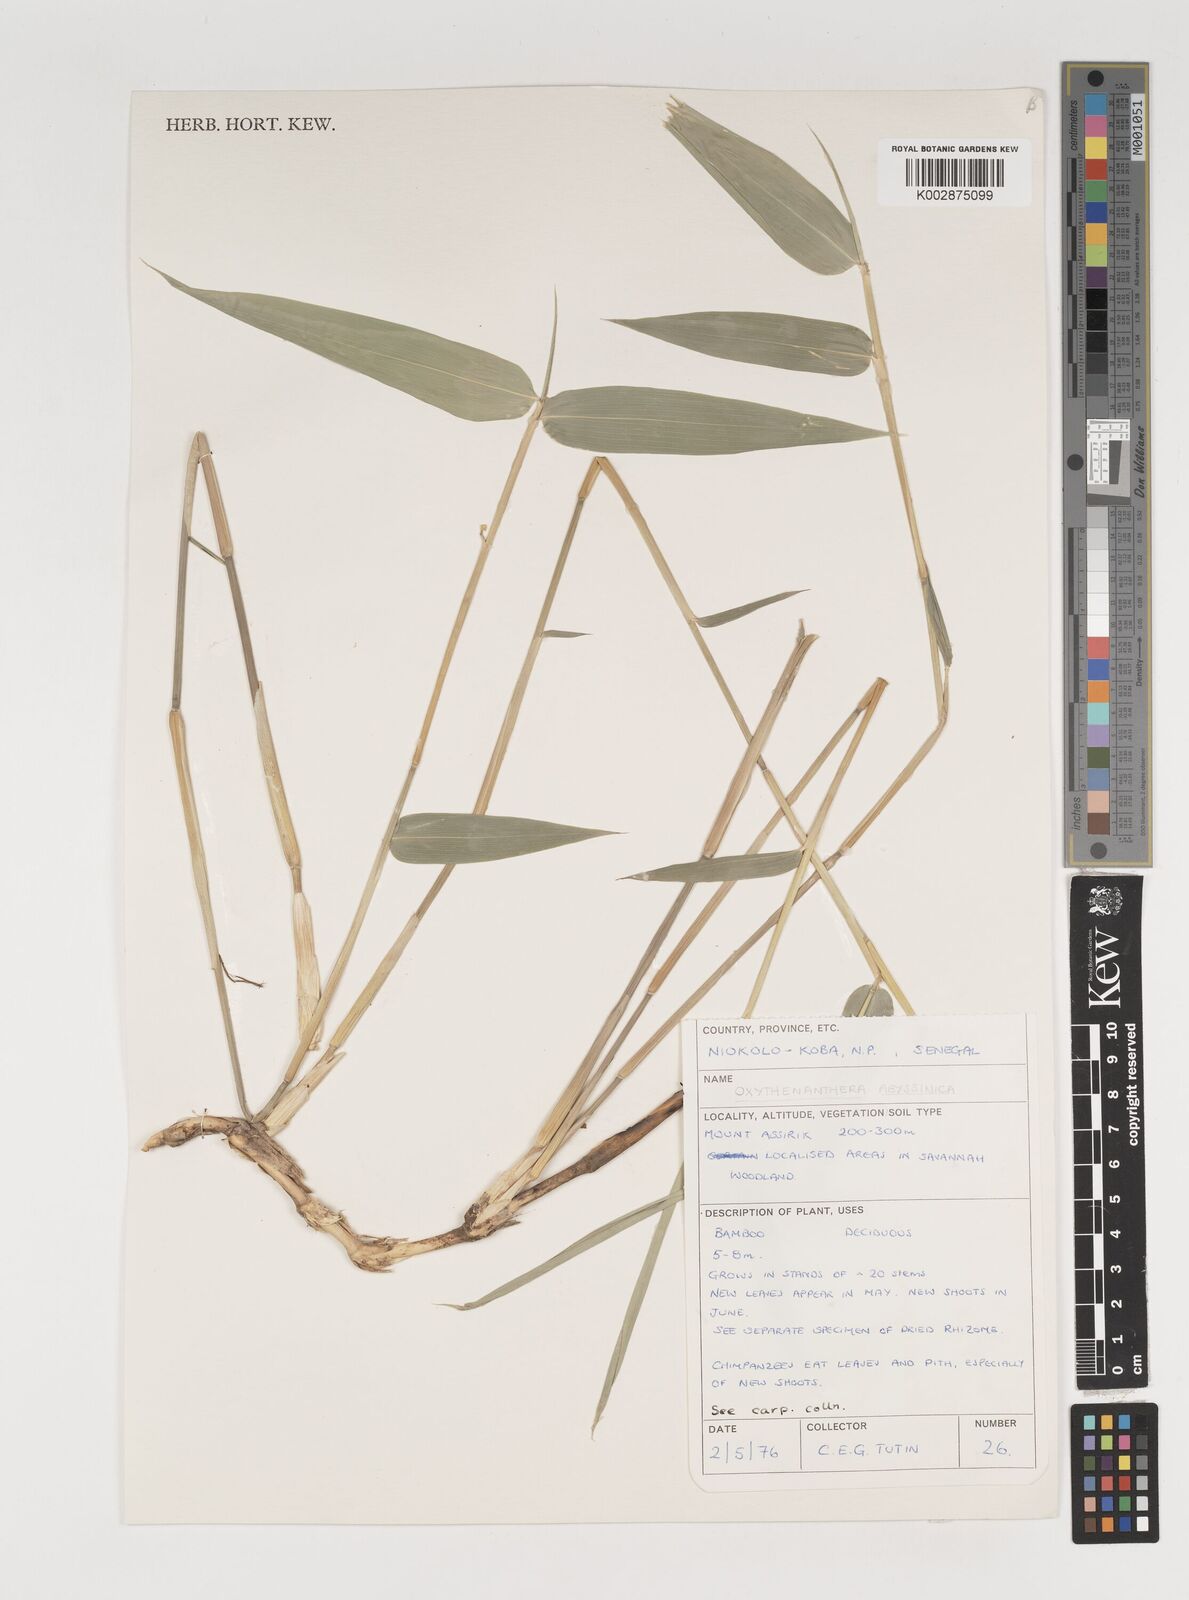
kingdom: Plantae
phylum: Tracheophyta
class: Liliopsida
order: Poales
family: Poaceae
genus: Oxytenanthera
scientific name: Oxytenanthera abyssinica
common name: Wine bamboo
